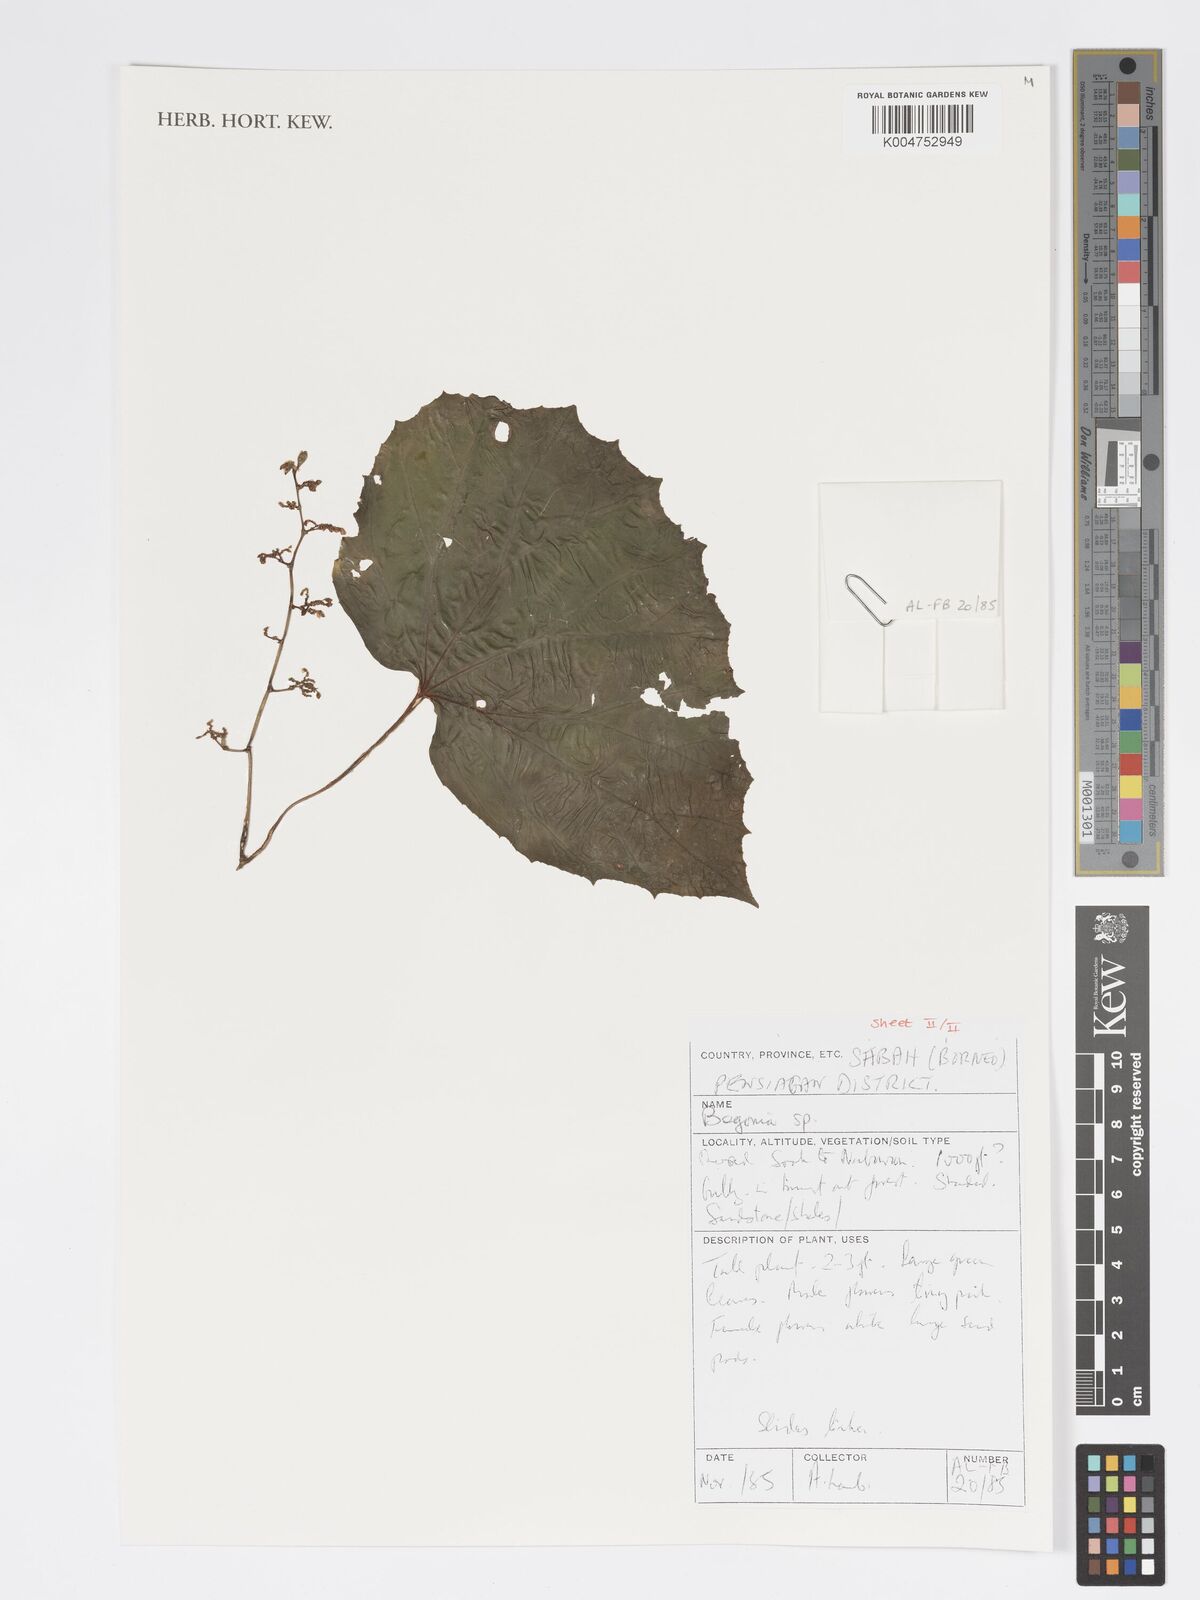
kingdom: Plantae
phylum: Tracheophyta
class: Magnoliopsida
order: Cucurbitales
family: Begoniaceae
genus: Begonia
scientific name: Begonia
